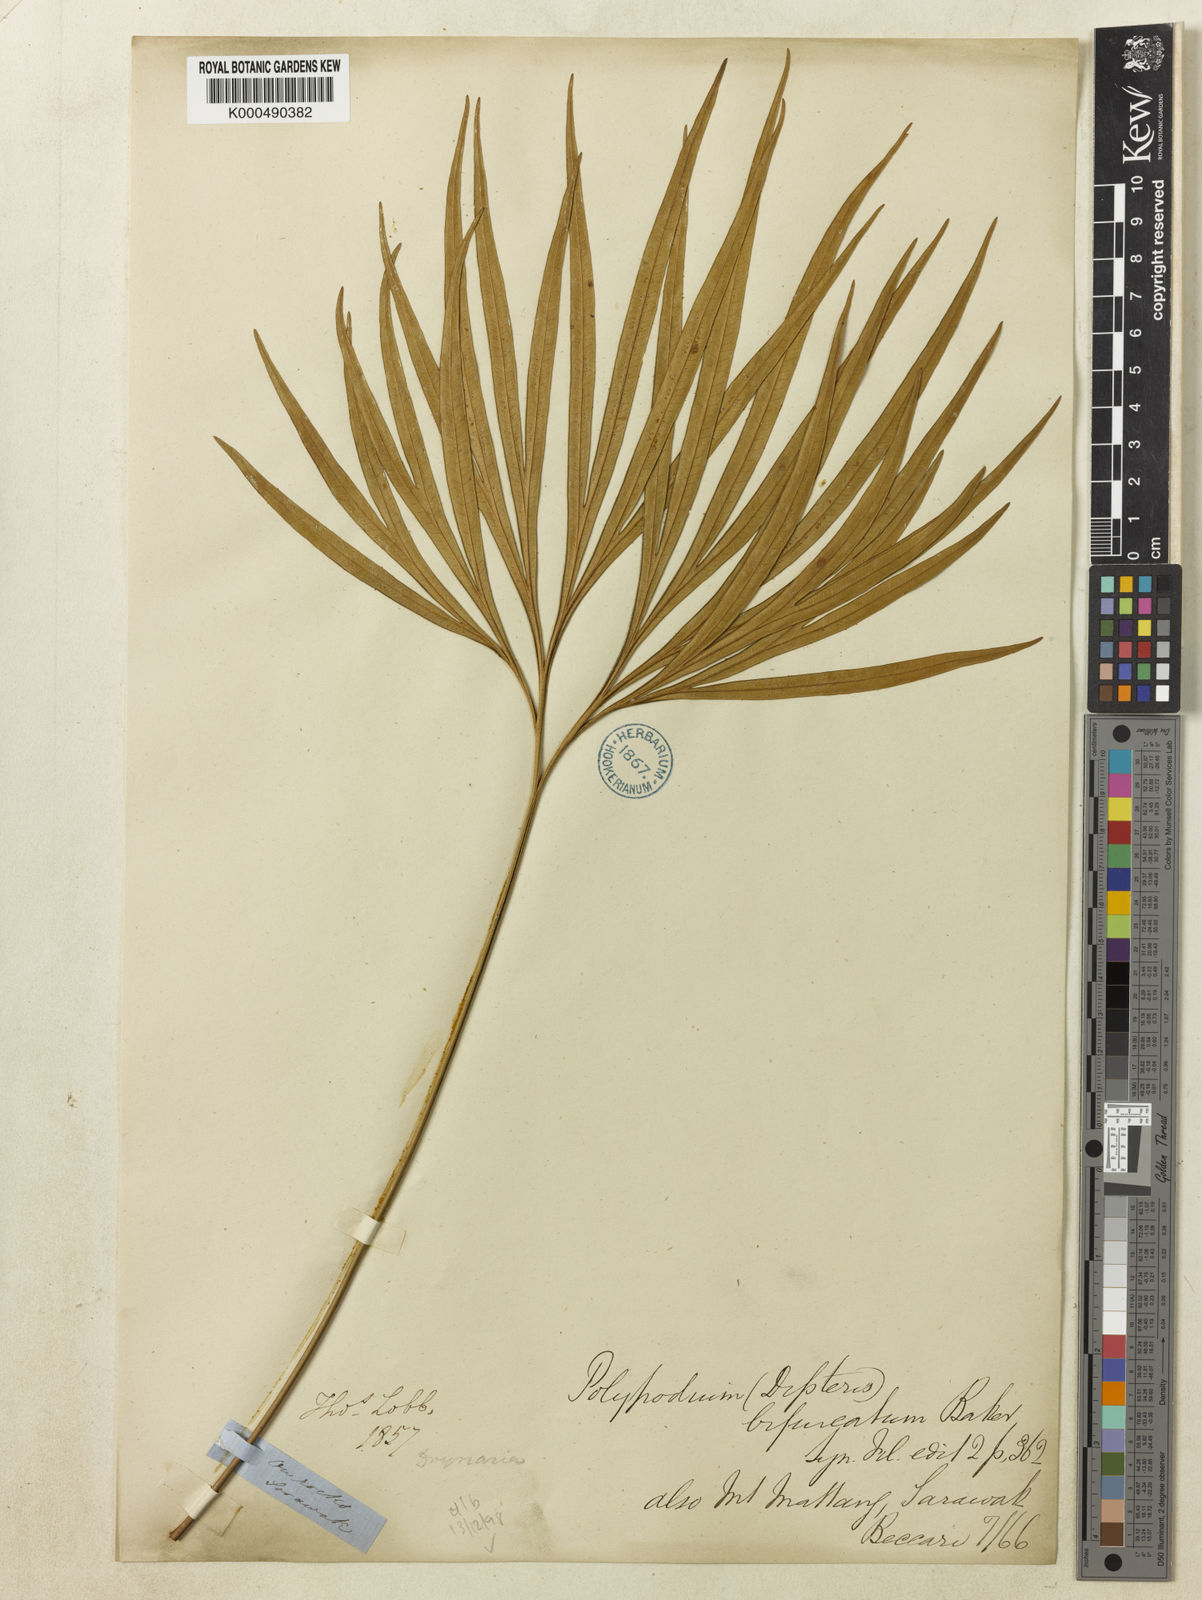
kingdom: Plantae
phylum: Tracheophyta
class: Polypodiopsida
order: Gleicheniales
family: Dipteridaceae
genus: Dipteris
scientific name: Dipteris lobbiana
